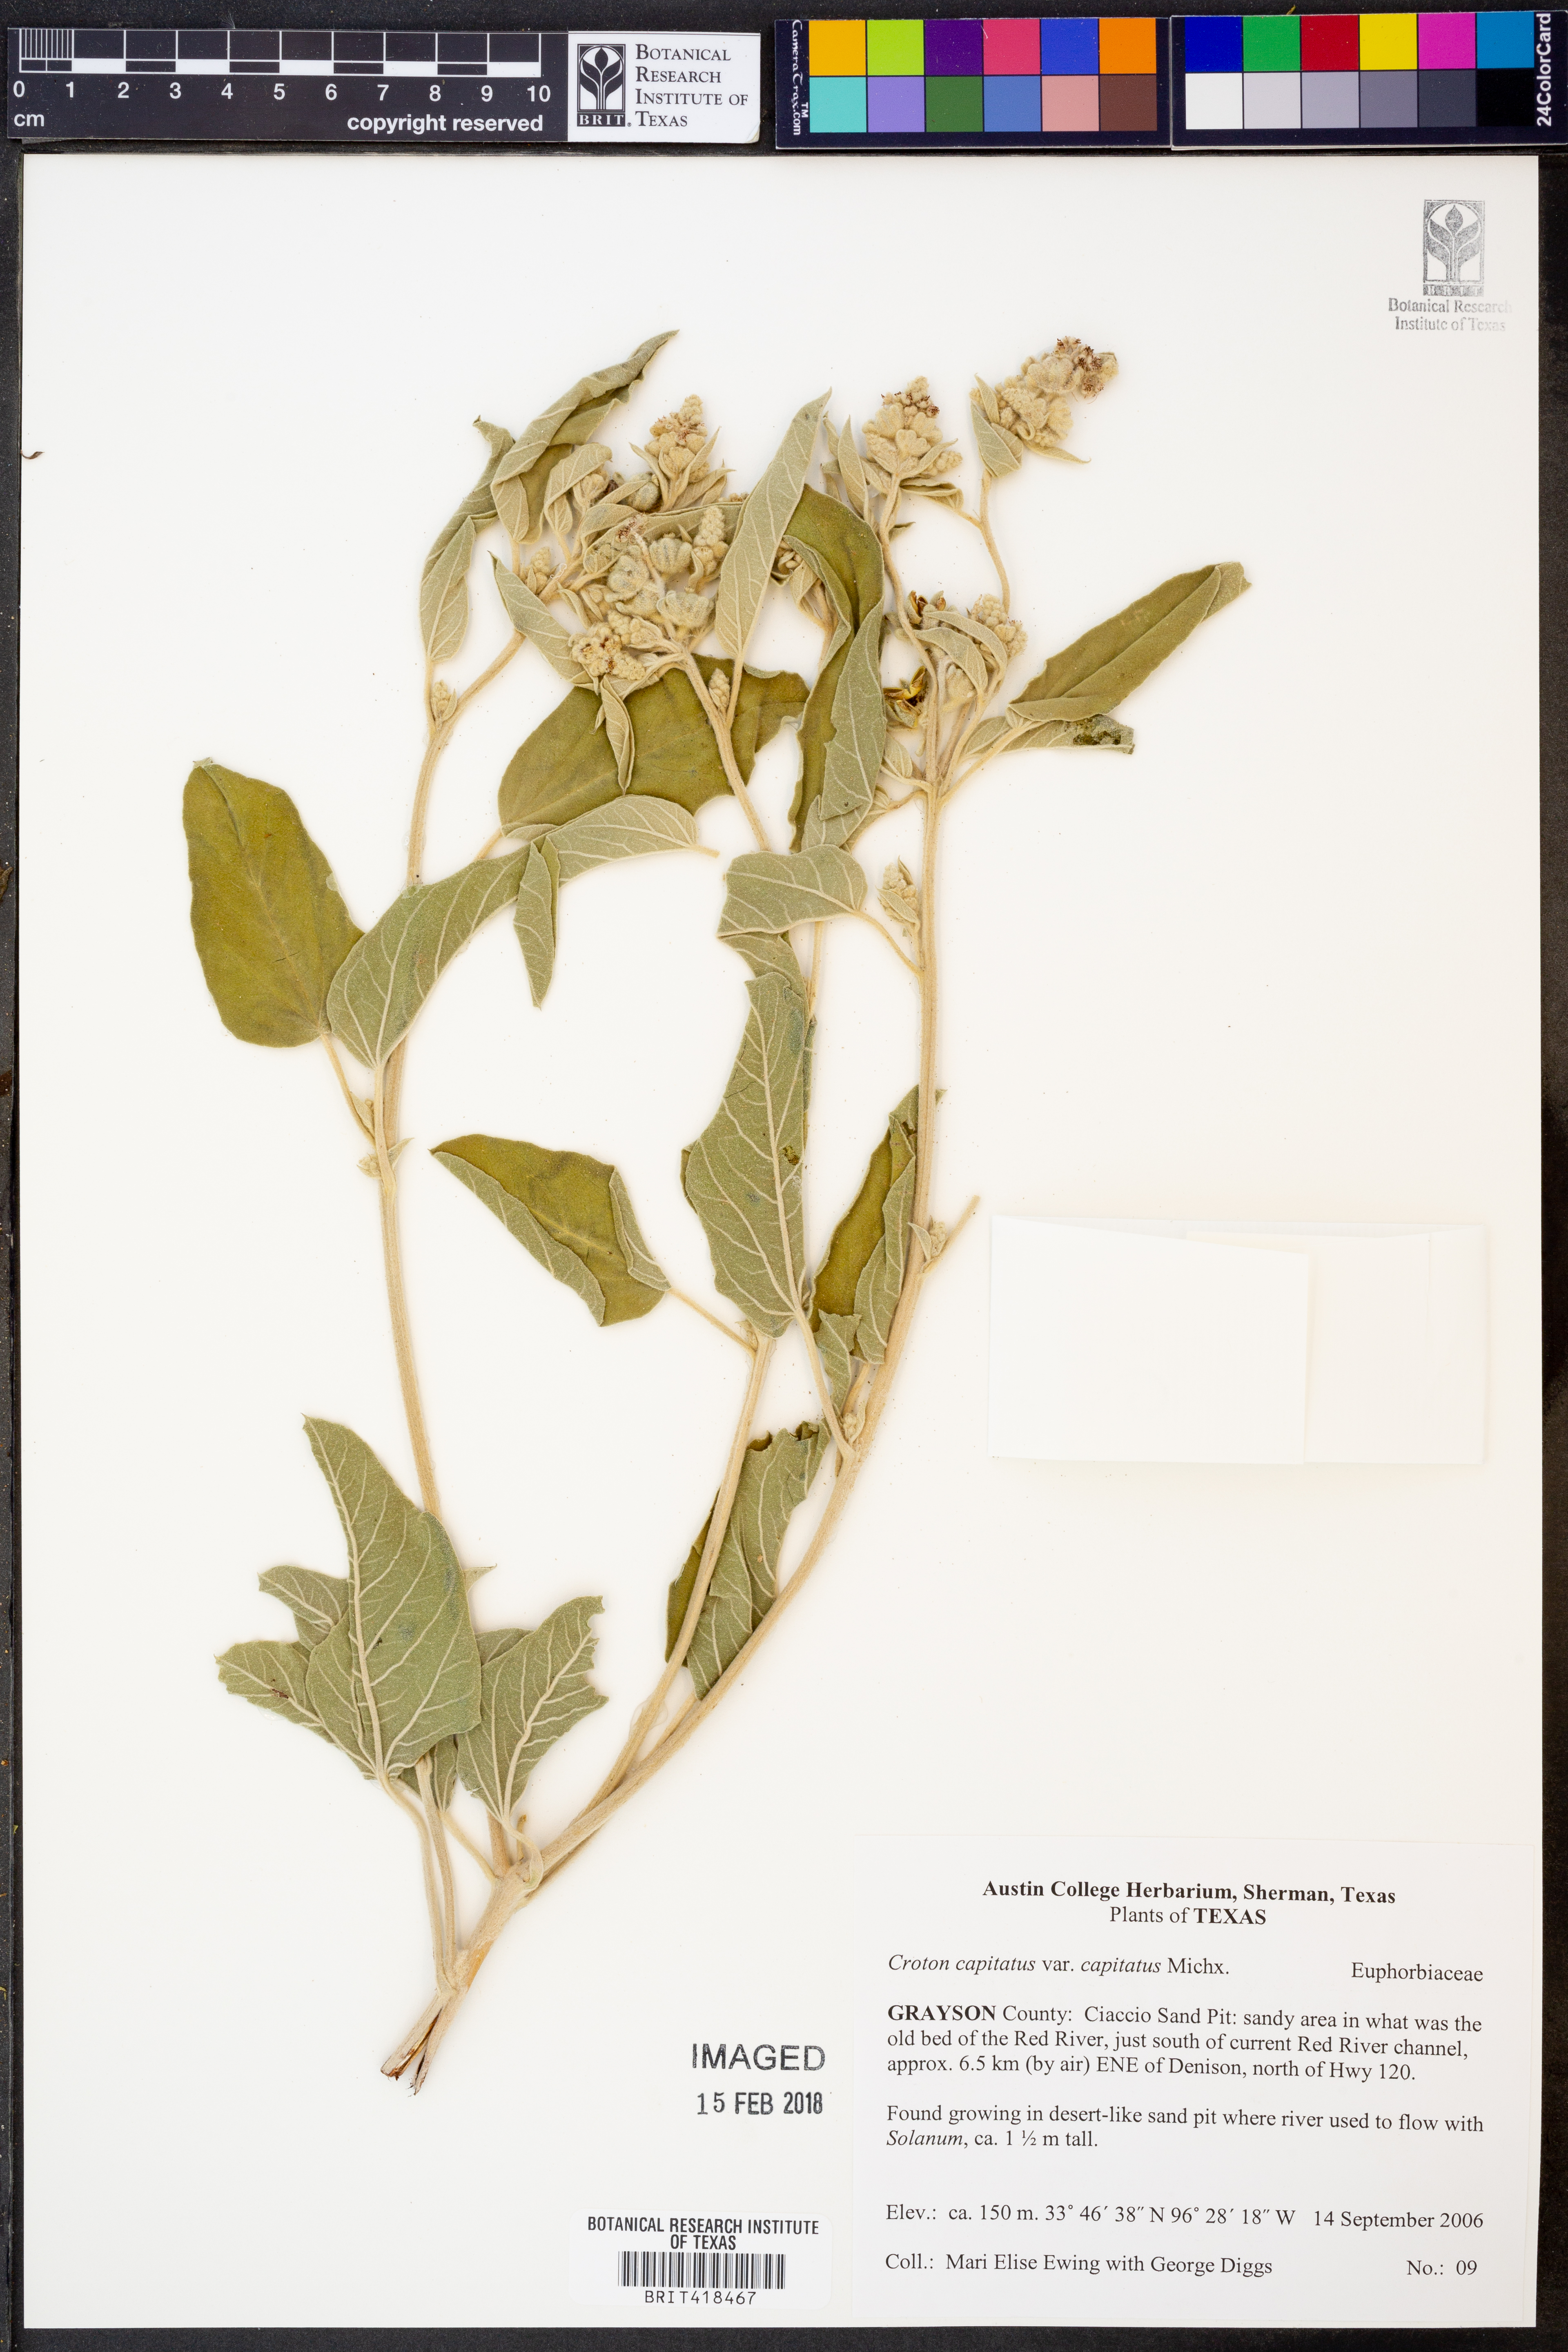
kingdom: Plantae
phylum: Tracheophyta
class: Magnoliopsida
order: Malpighiales
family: Euphorbiaceae
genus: Croton
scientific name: Croton capitatus
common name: Woolly croton
